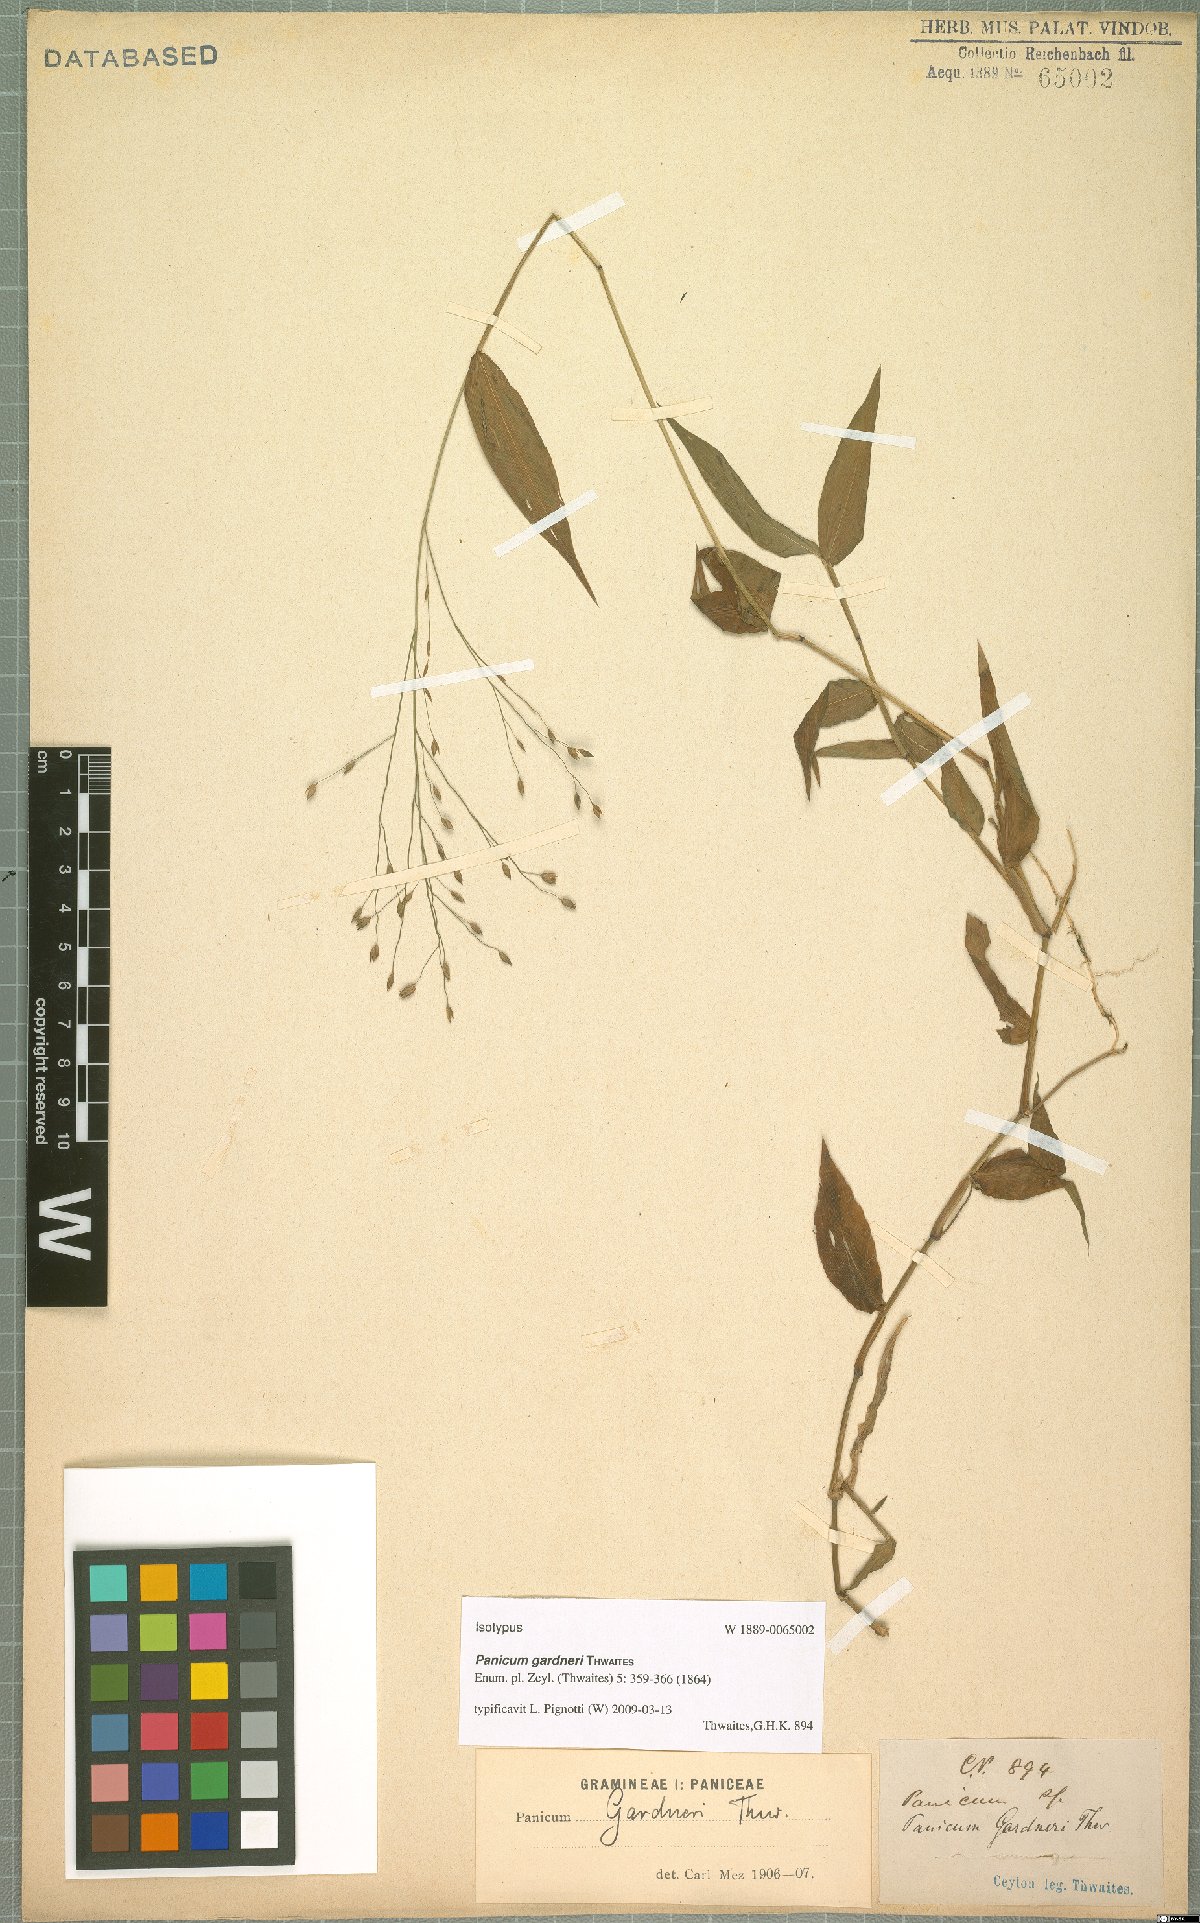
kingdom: Plantae
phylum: Tracheophyta
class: Liliopsida
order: Poales
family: Poaceae
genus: Panicum
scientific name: Panicum gardneri
